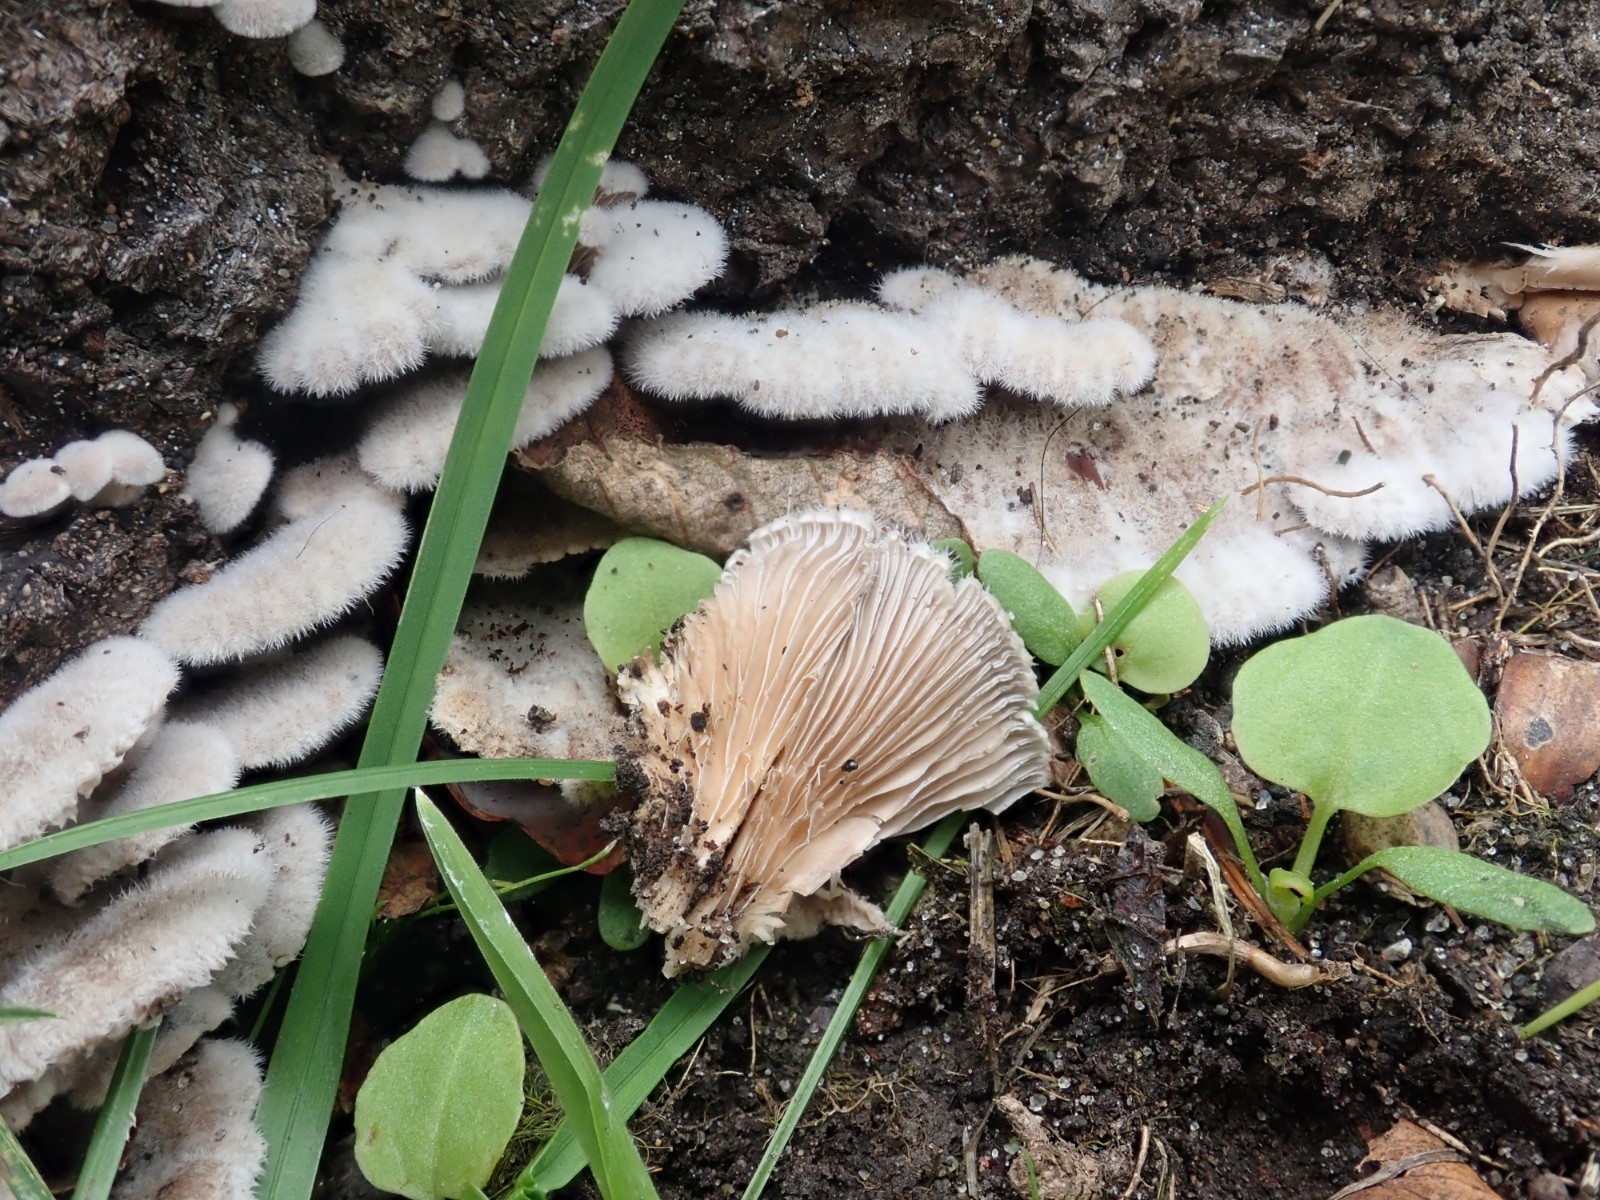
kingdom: Fungi
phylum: Basidiomycota
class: Agaricomycetes
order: Agaricales
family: Schizophyllaceae
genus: Schizophyllum
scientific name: Schizophyllum commune
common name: kløvblad
